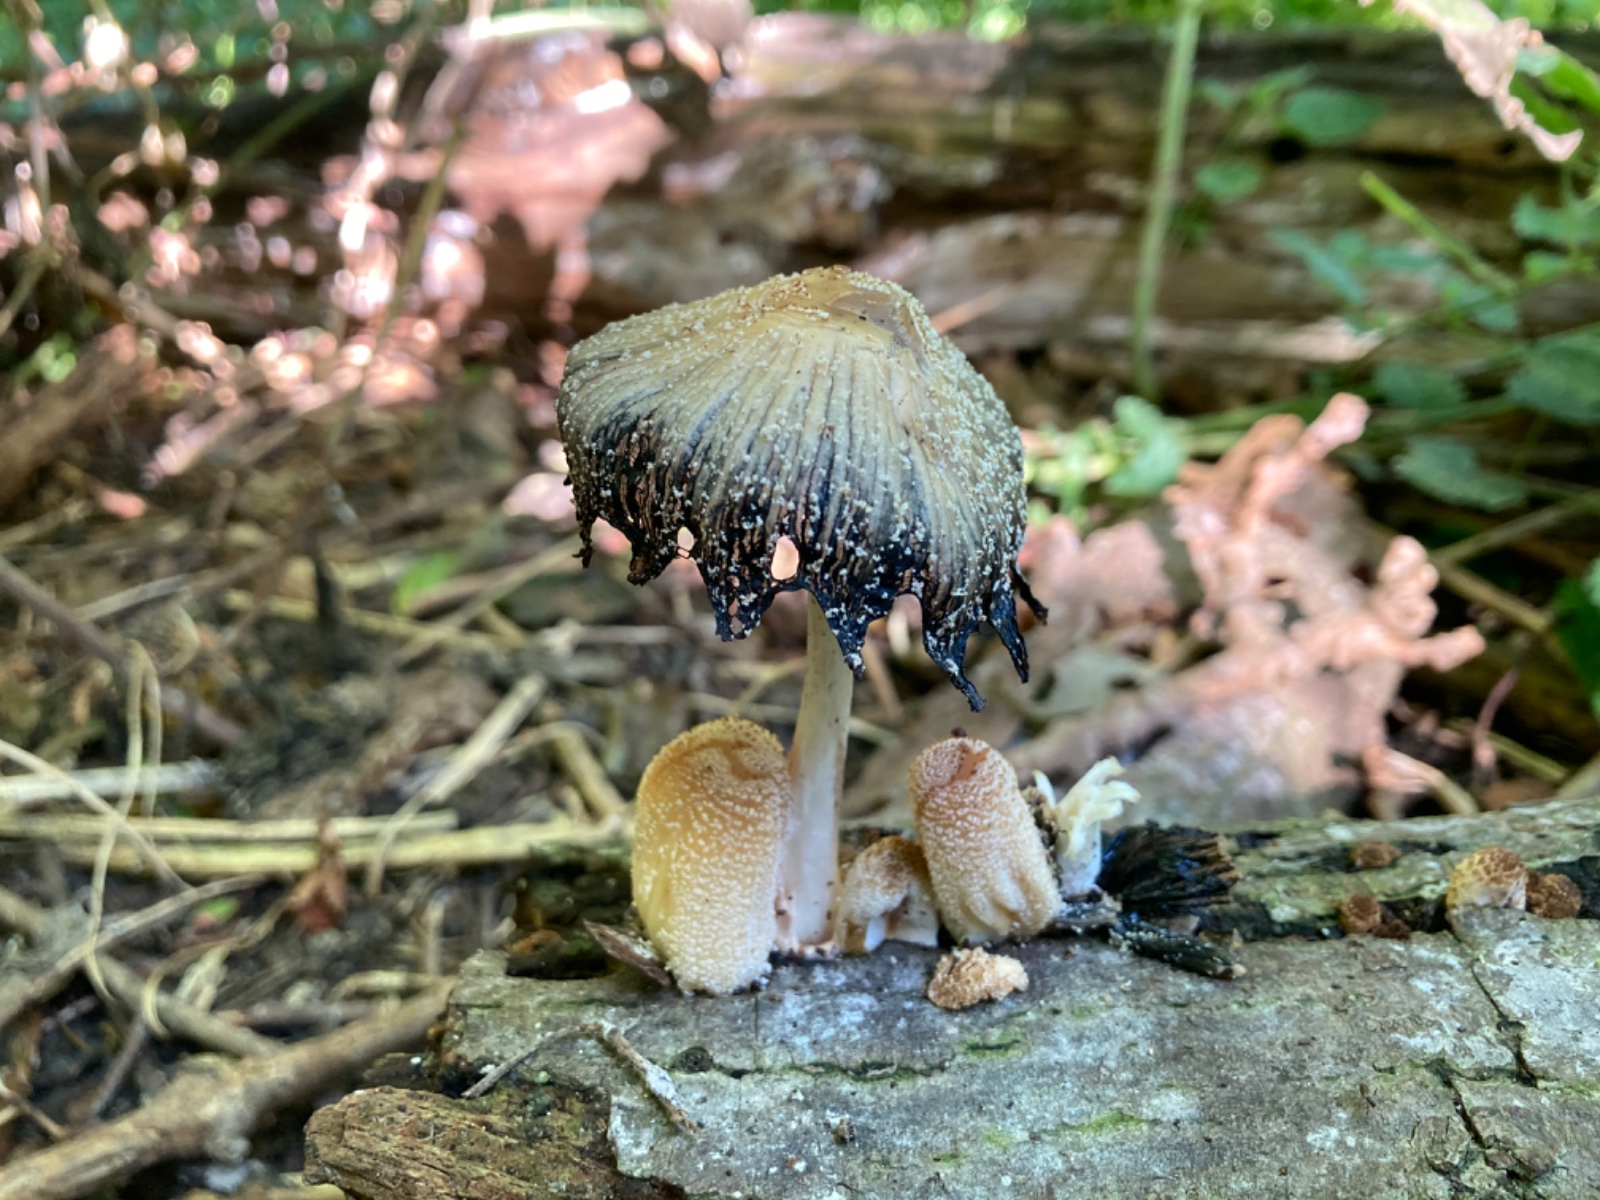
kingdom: Fungi
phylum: Basidiomycota
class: Agaricomycetes
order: Agaricales
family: Psathyrellaceae
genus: Coprinellus
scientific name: Coprinellus domesticus
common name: hus-blækhat
